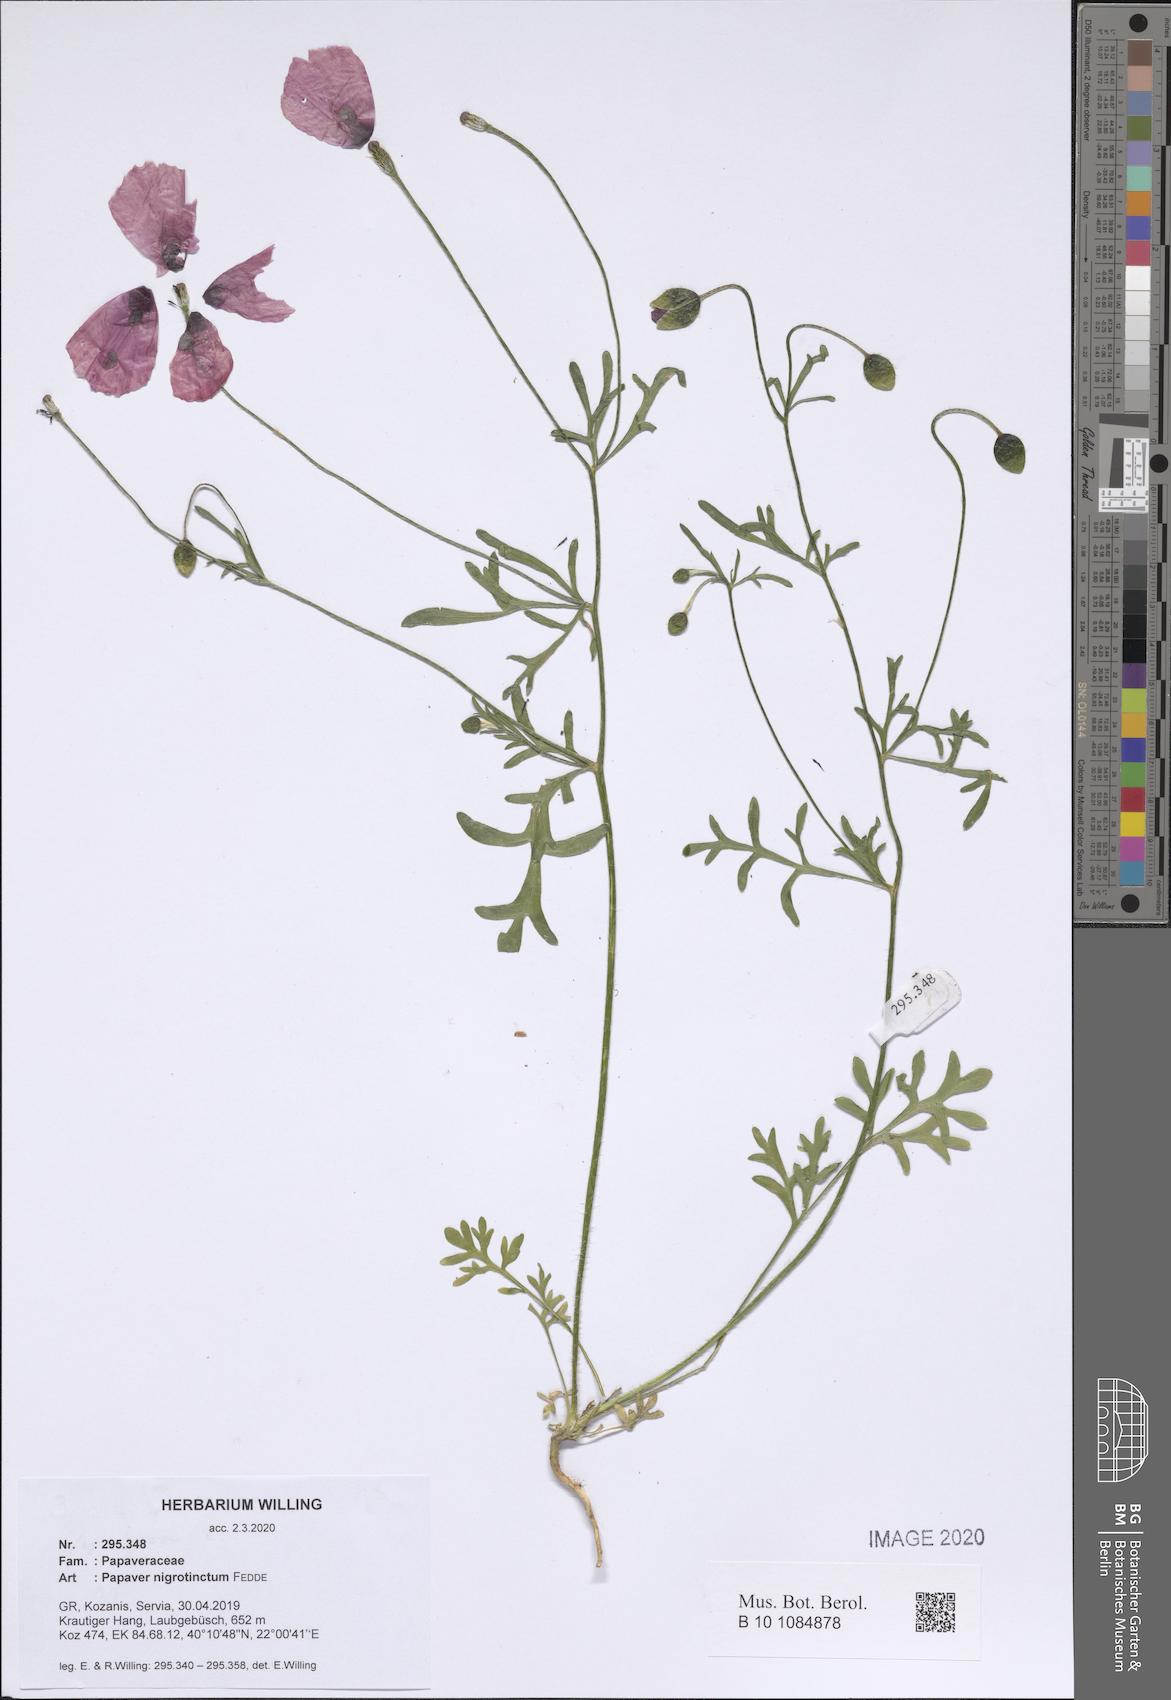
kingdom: Plantae
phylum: Tracheophyta
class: Magnoliopsida
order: Ranunculales
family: Papaveraceae
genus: Roemeria
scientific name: Roemeria nigrotincta
